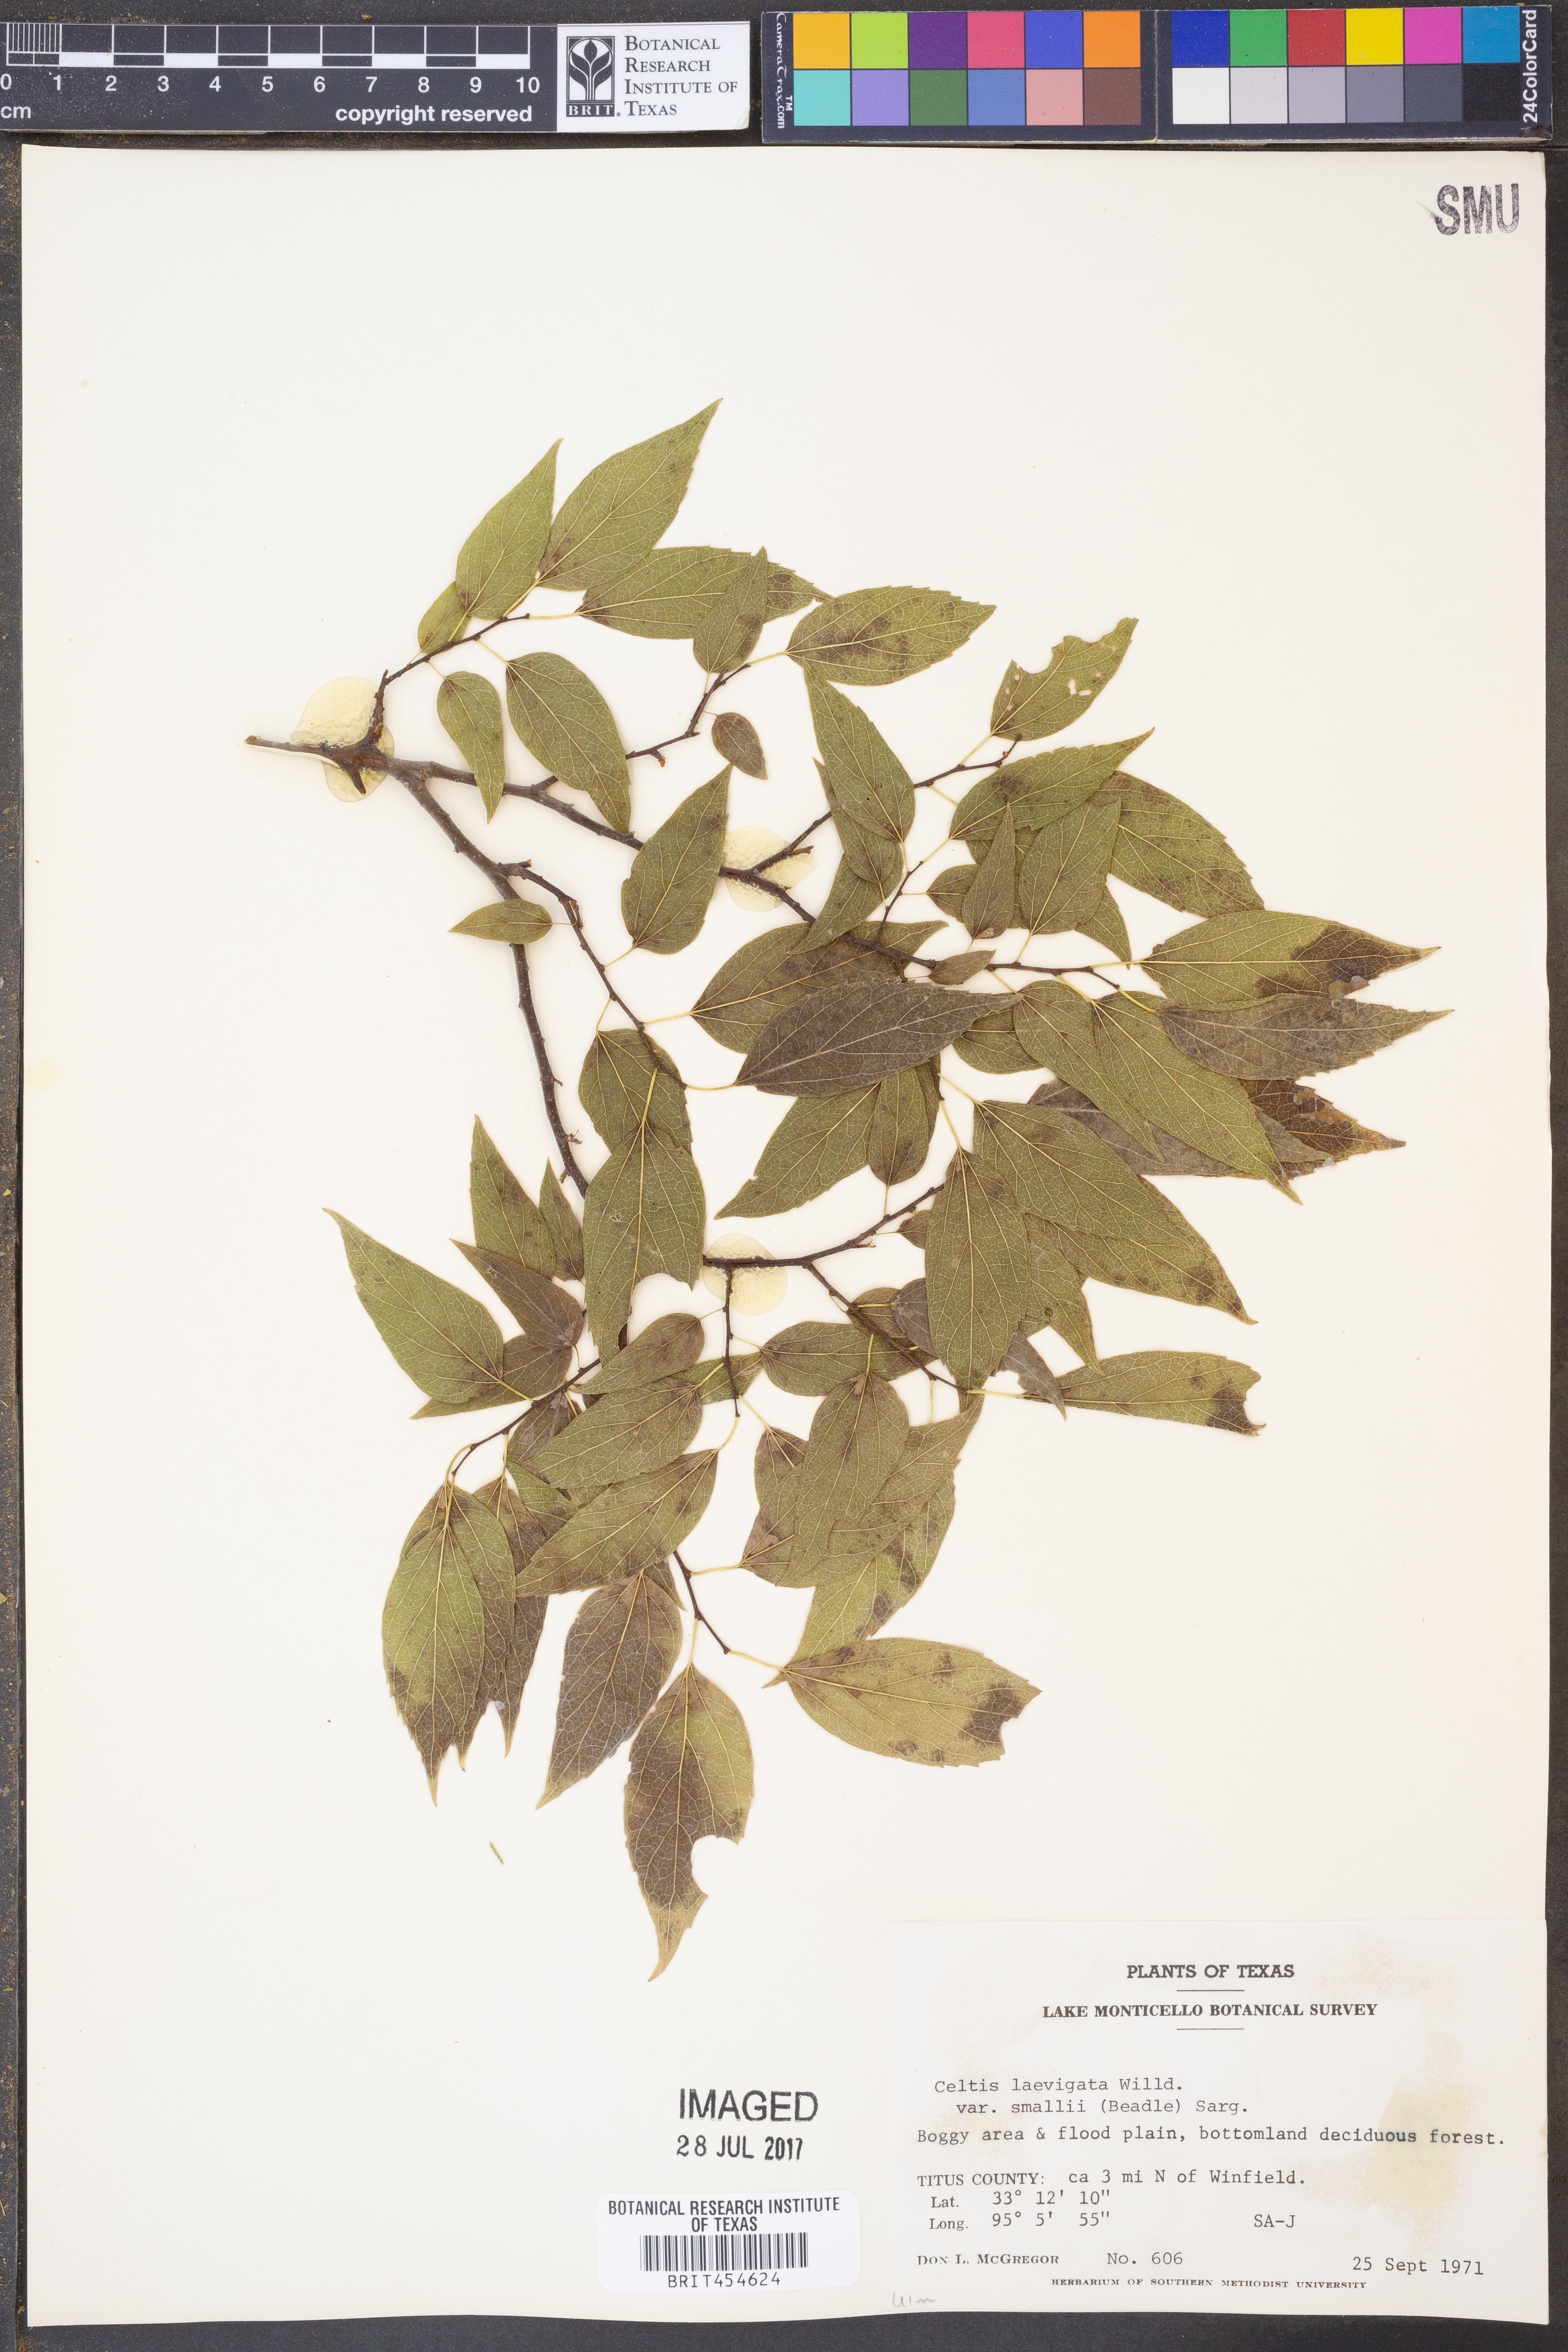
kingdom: Plantae
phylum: Tracheophyta
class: Magnoliopsida
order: Rosales
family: Cannabaceae
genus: Celtis
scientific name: Celtis
